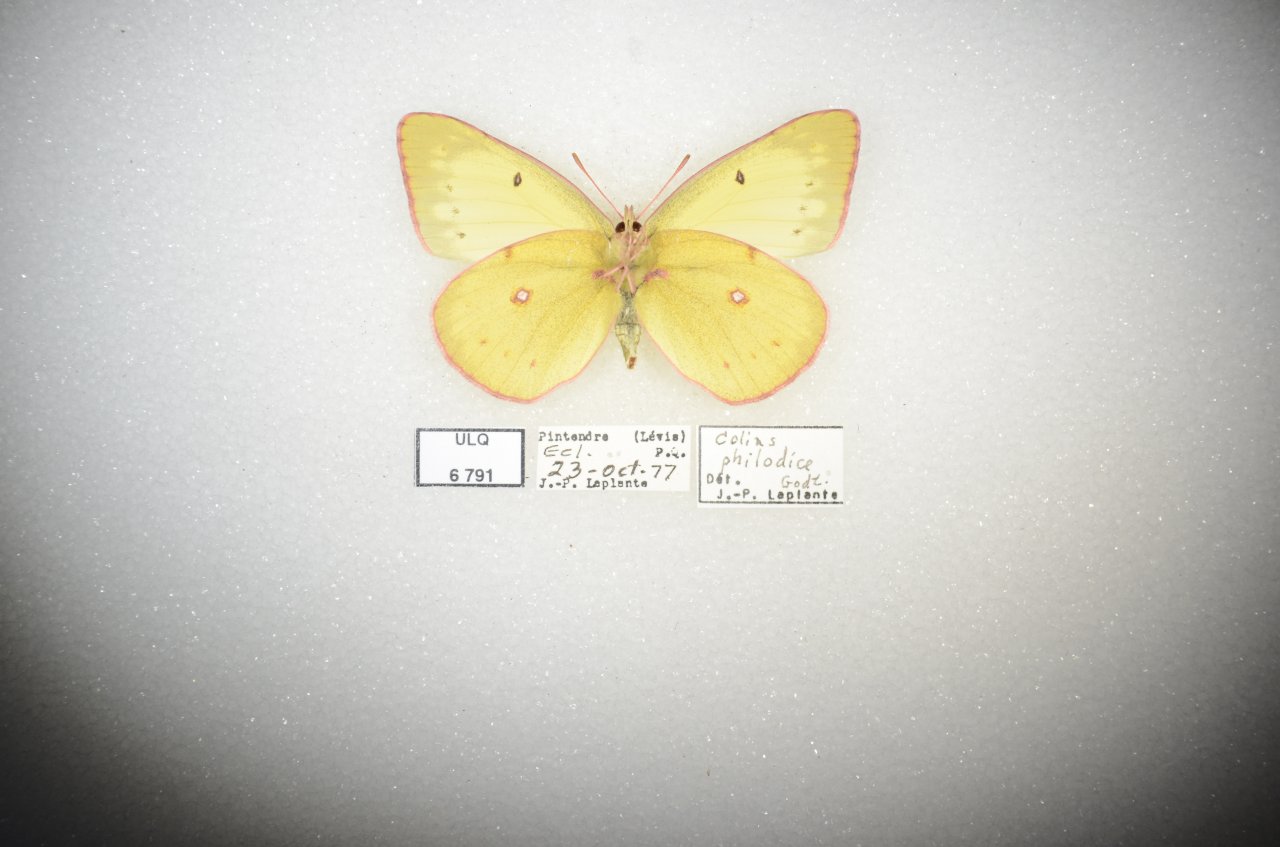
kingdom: Animalia
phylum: Arthropoda
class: Insecta
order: Lepidoptera
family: Pieridae
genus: Colias
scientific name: Colias philodice
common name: Clouded Sulphur
